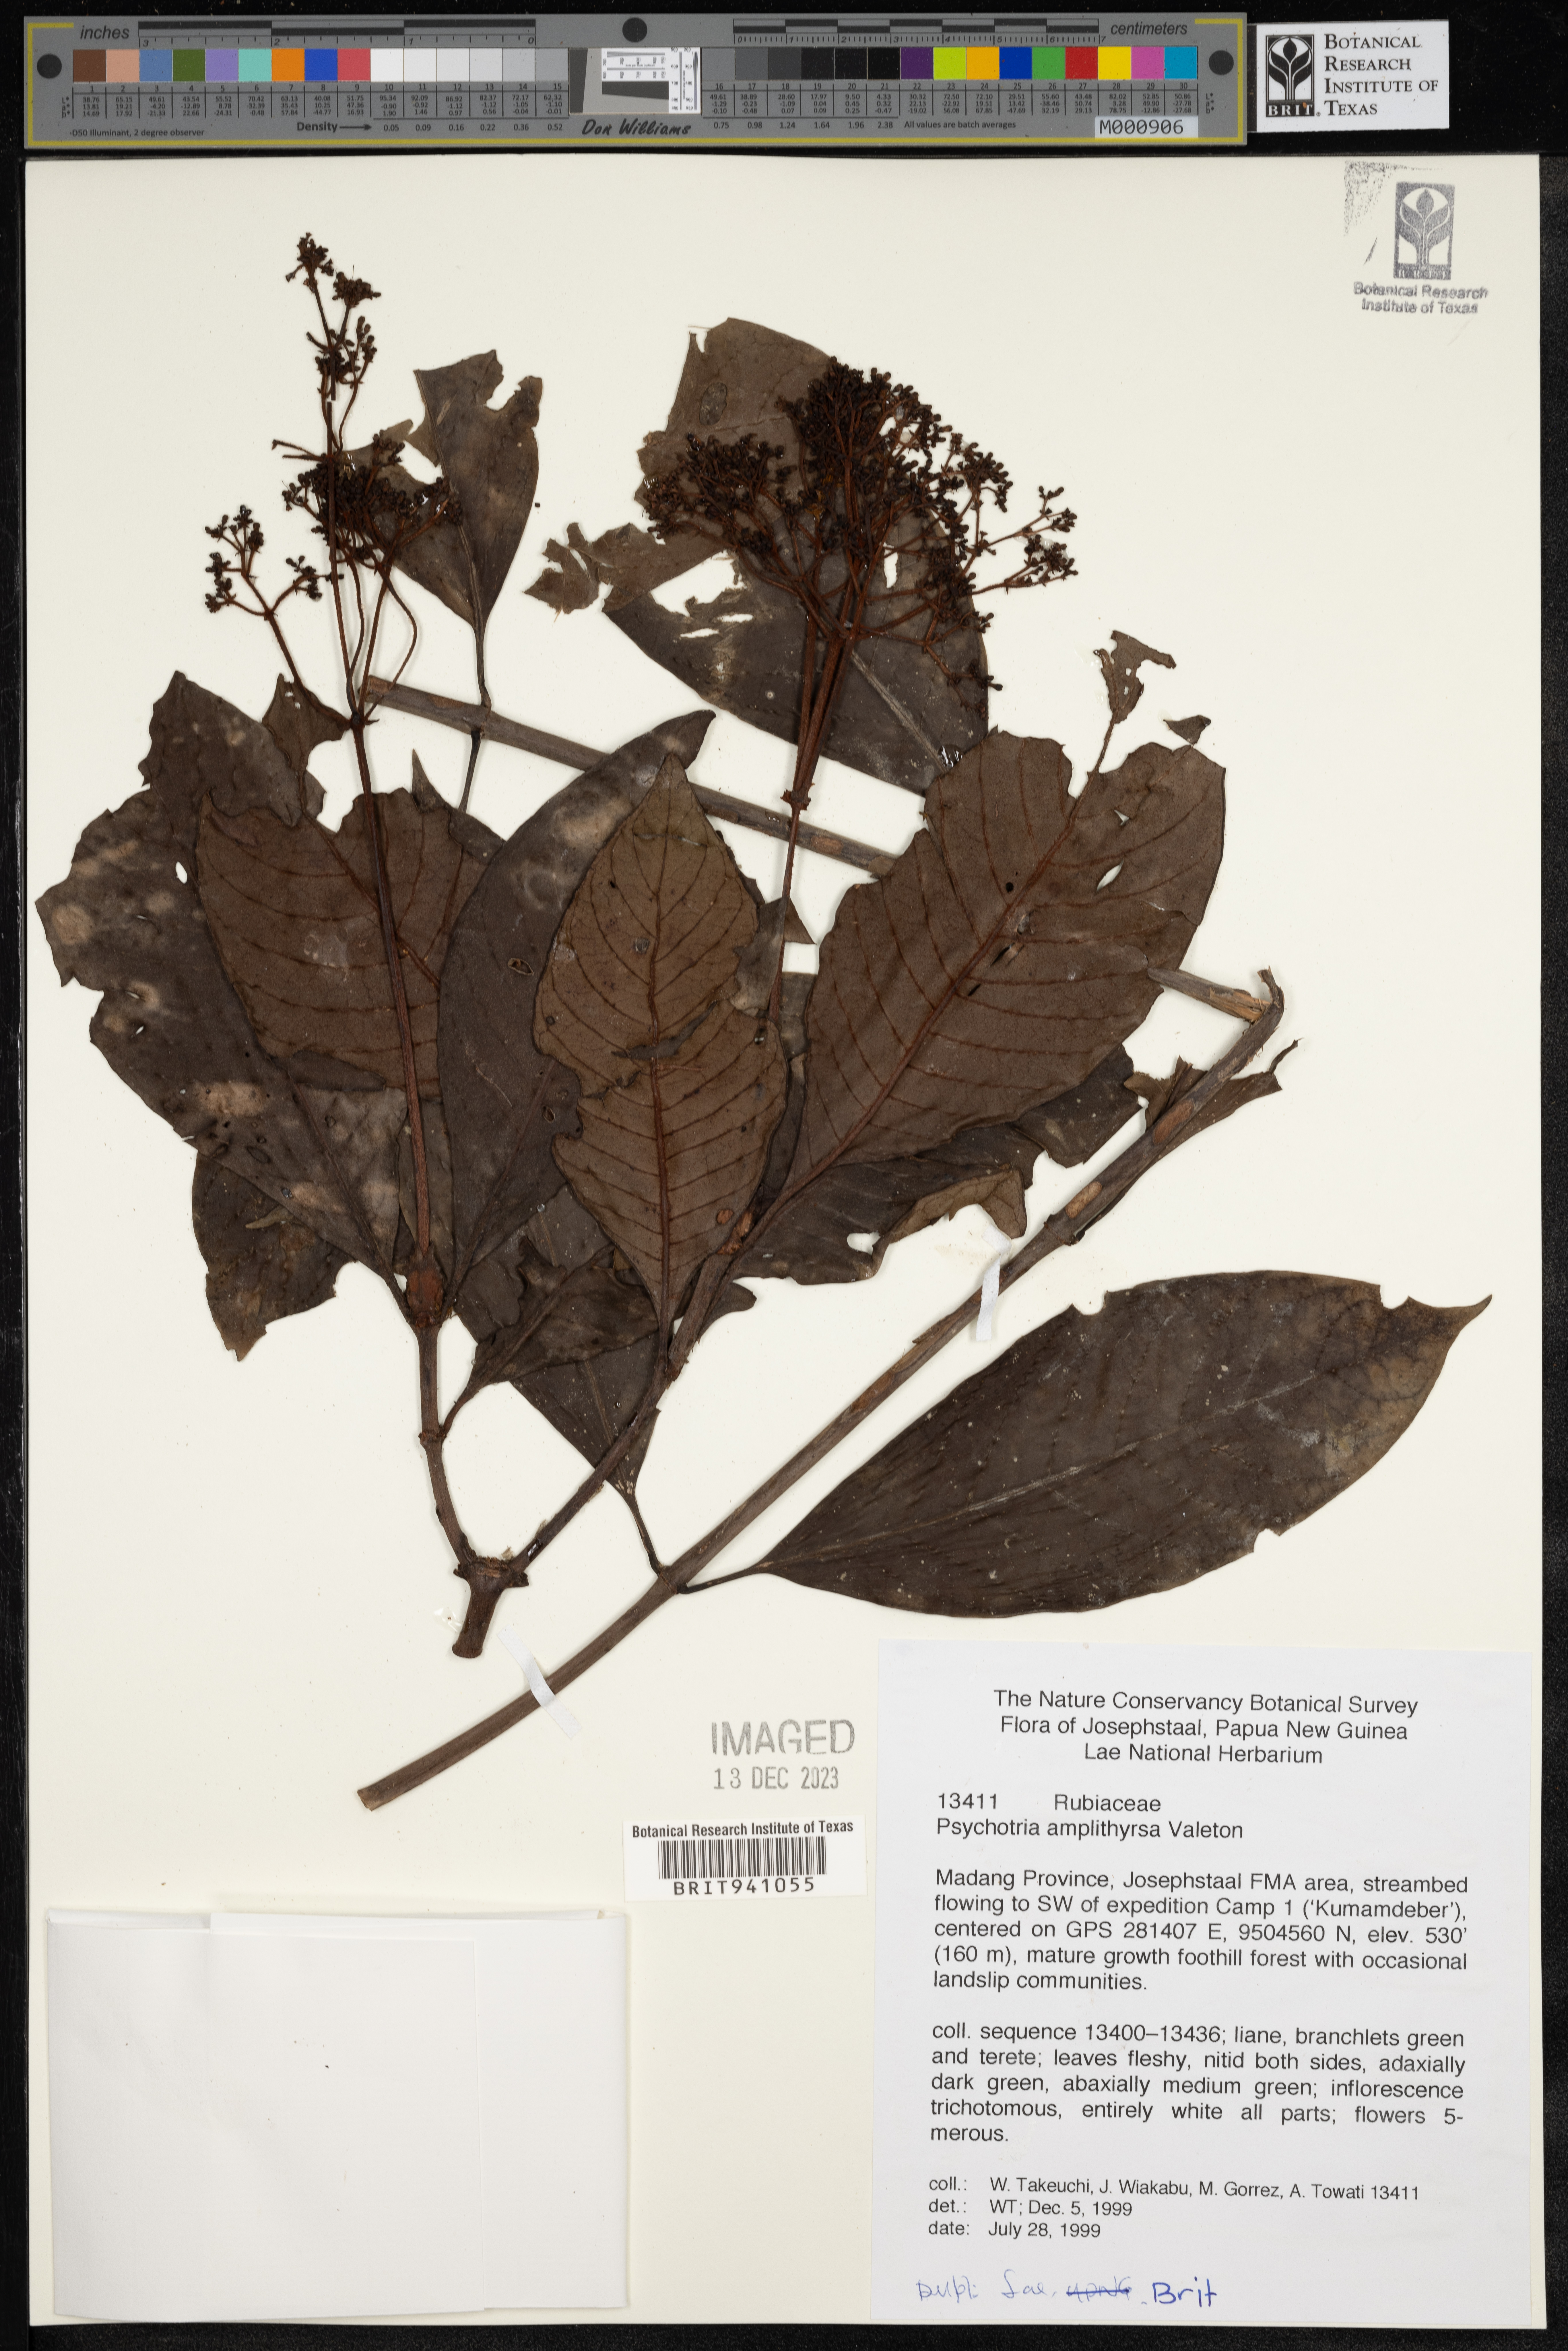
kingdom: Plantae
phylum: Tracheophyta
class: Magnoliopsida
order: Gentianales
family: Rubiaceae
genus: Psychotria
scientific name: Psychotria
